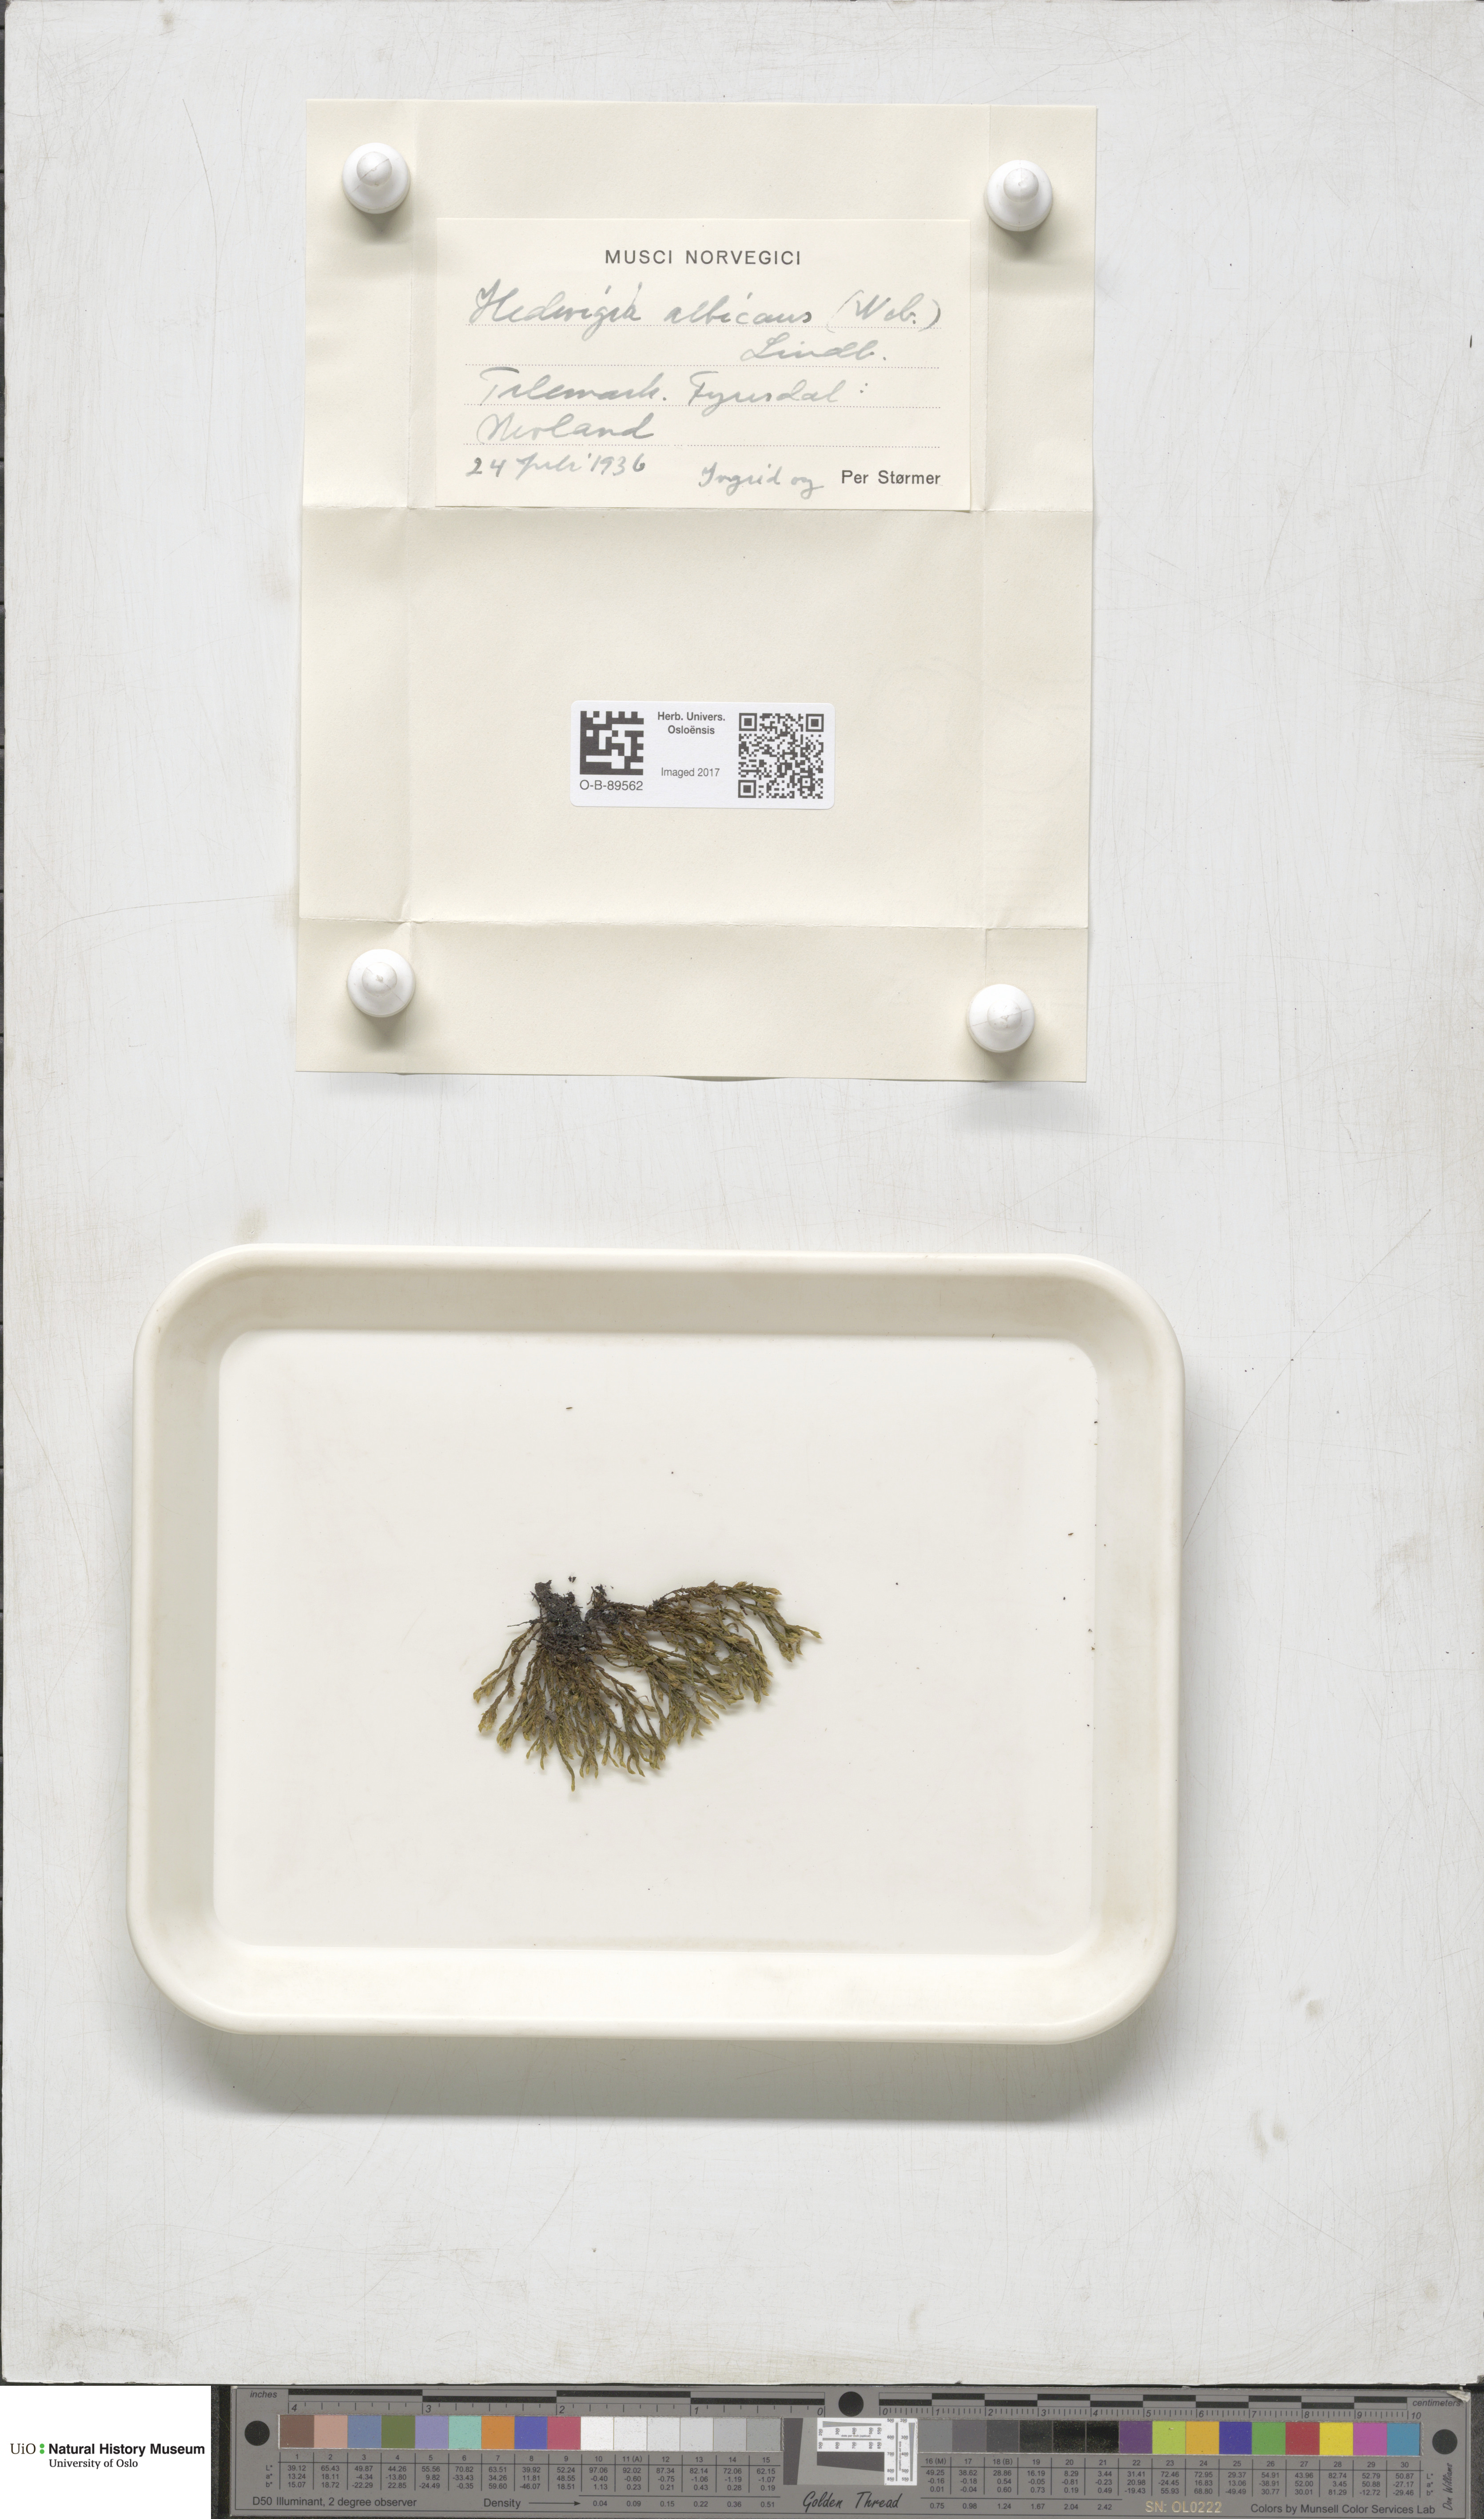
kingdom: Plantae
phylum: Bryophyta
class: Bryopsida
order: Hedwigiales
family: Hedwigiaceae
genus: Hedwigia
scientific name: Hedwigia ciliata
